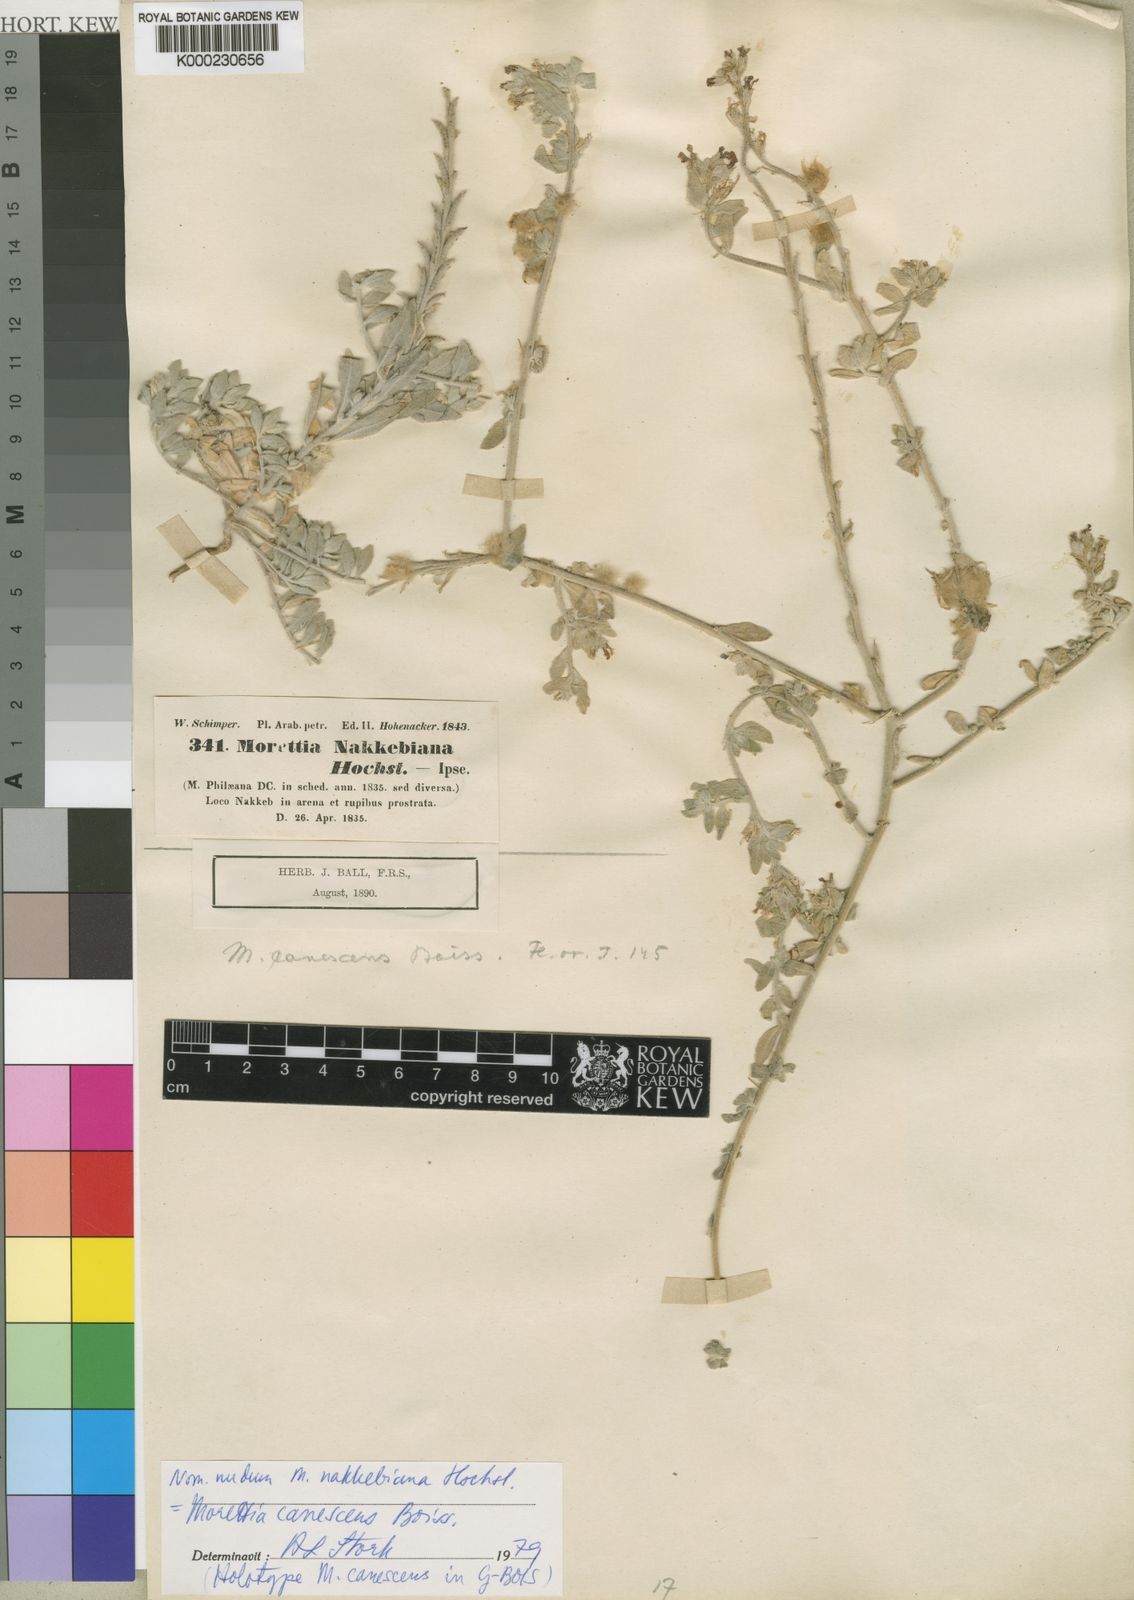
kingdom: Plantae
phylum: Tracheophyta
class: Magnoliopsida
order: Brassicales
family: Brassicaceae
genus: Morettia
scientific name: Morettia canescens
